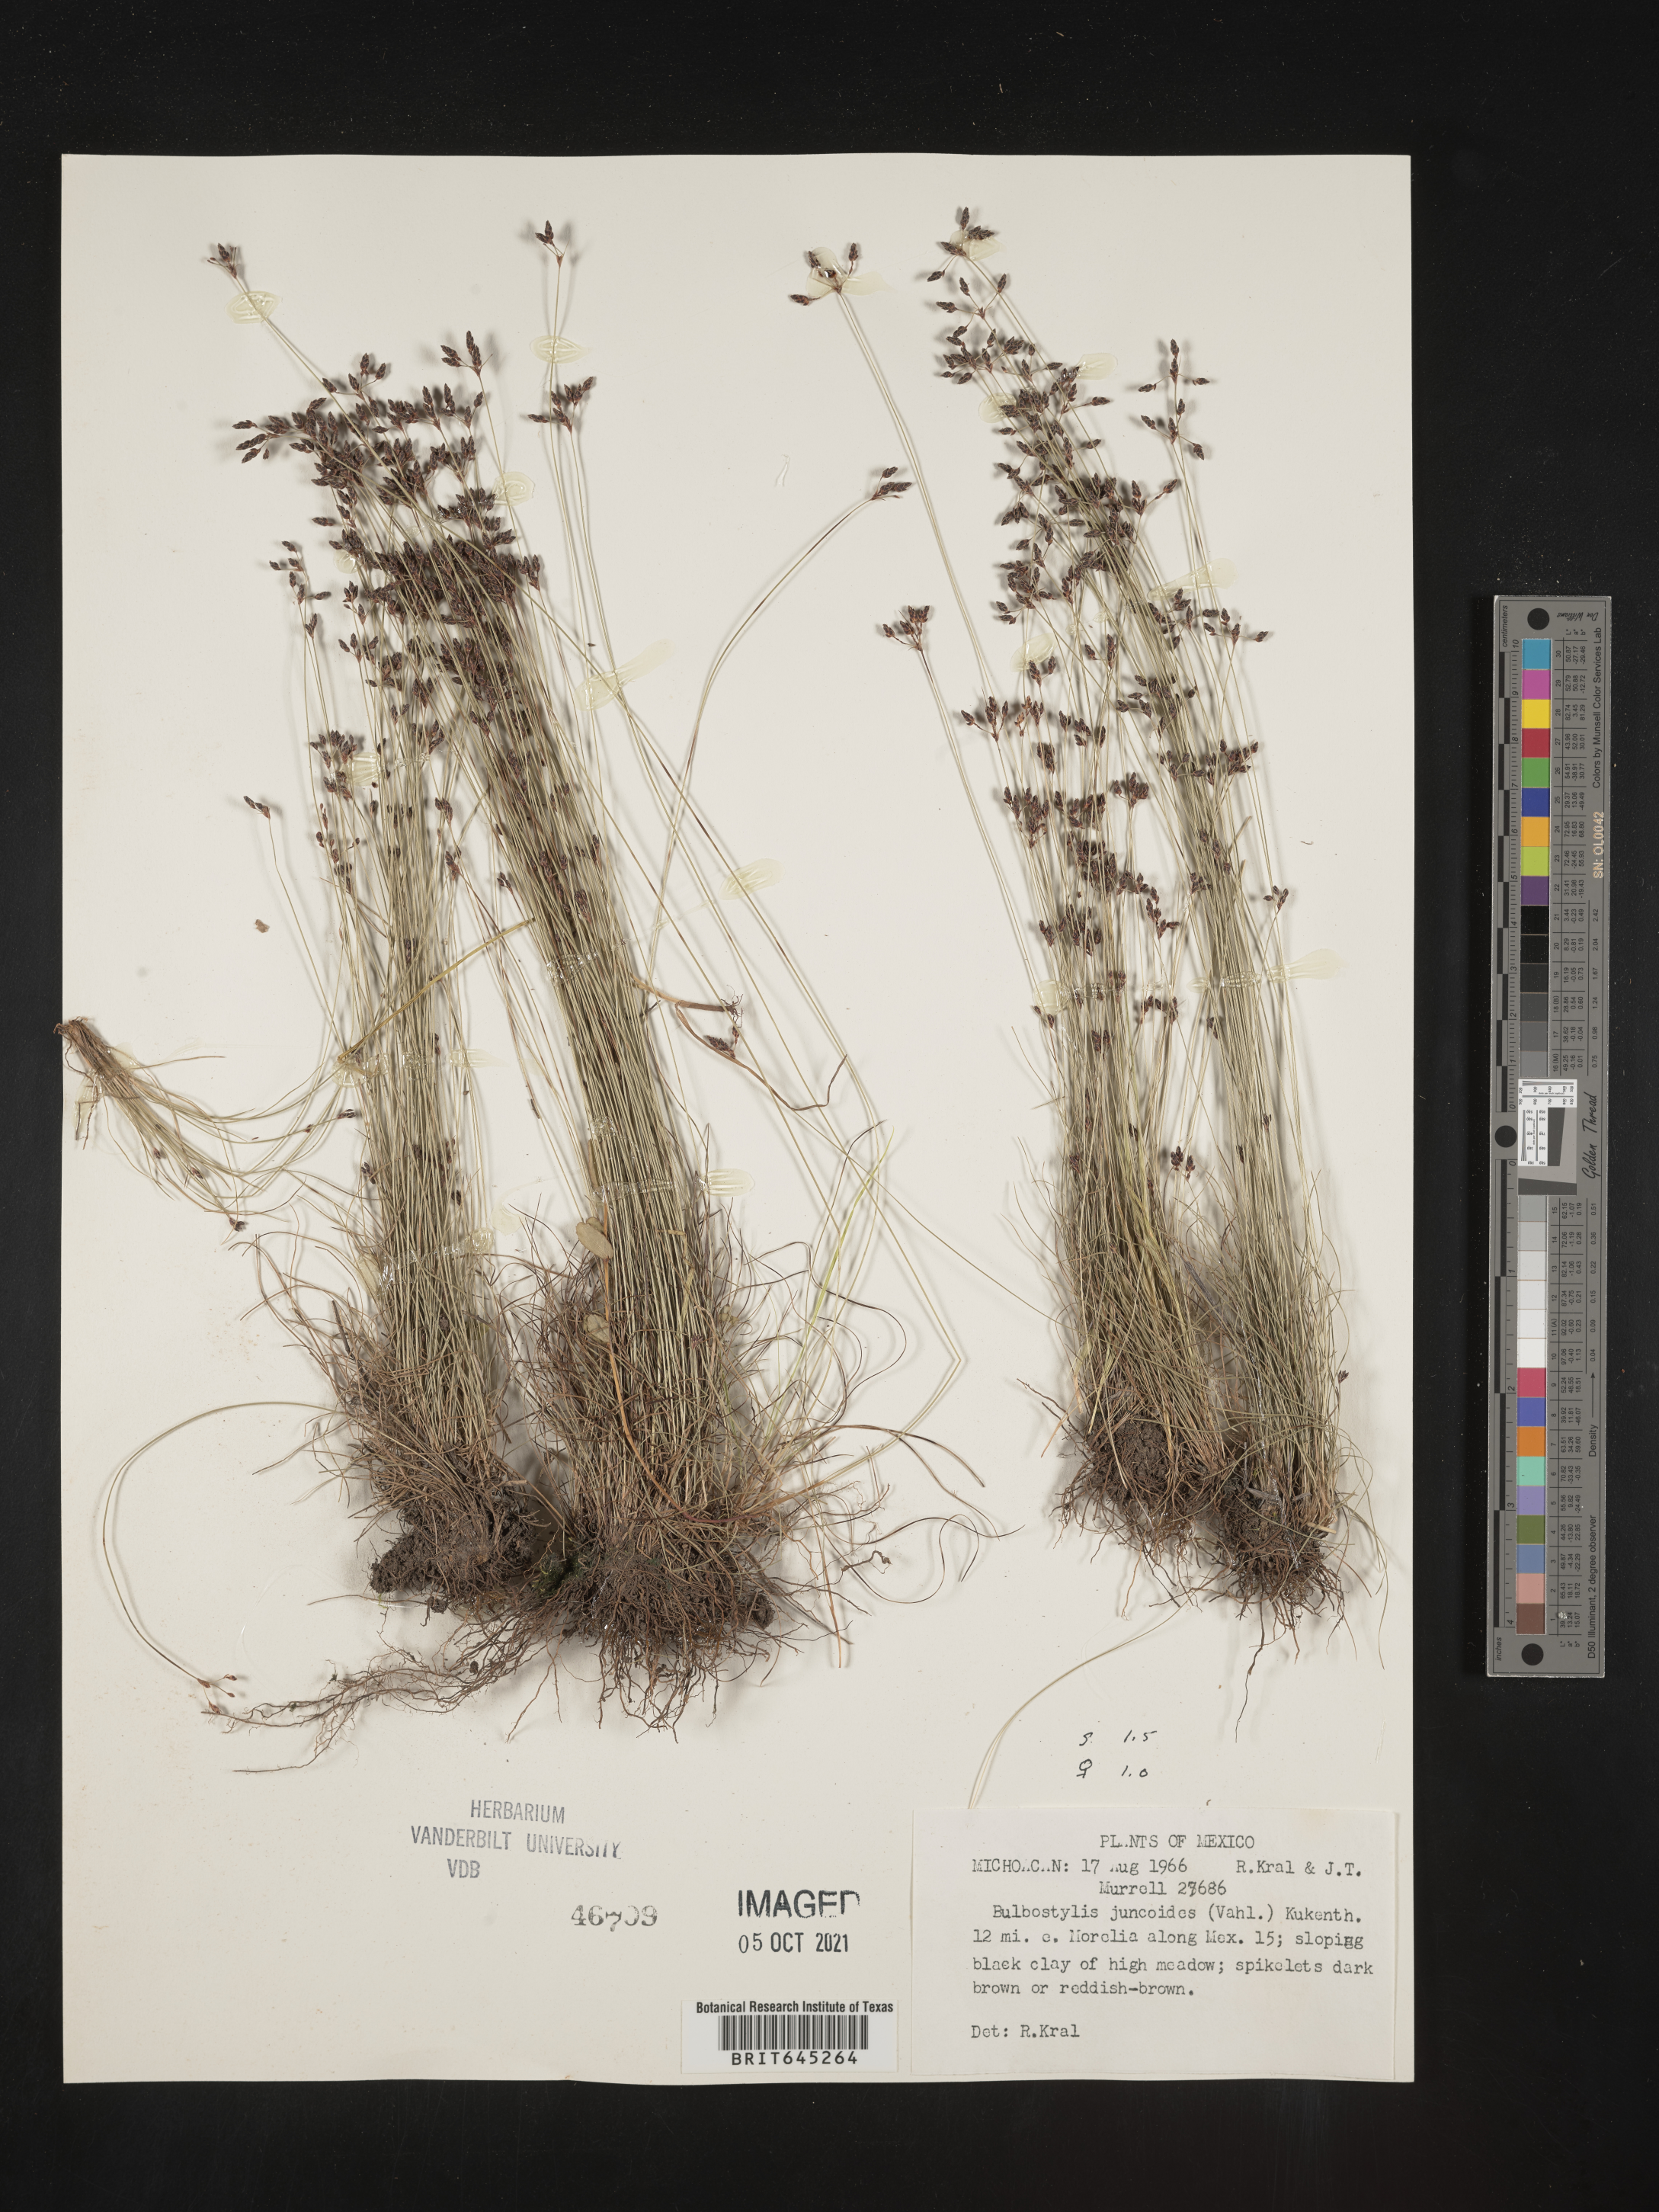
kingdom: Plantae
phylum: Tracheophyta
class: Liliopsida
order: Poales
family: Cyperaceae
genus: Bulbostylis
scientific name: Bulbostylis juncoides
